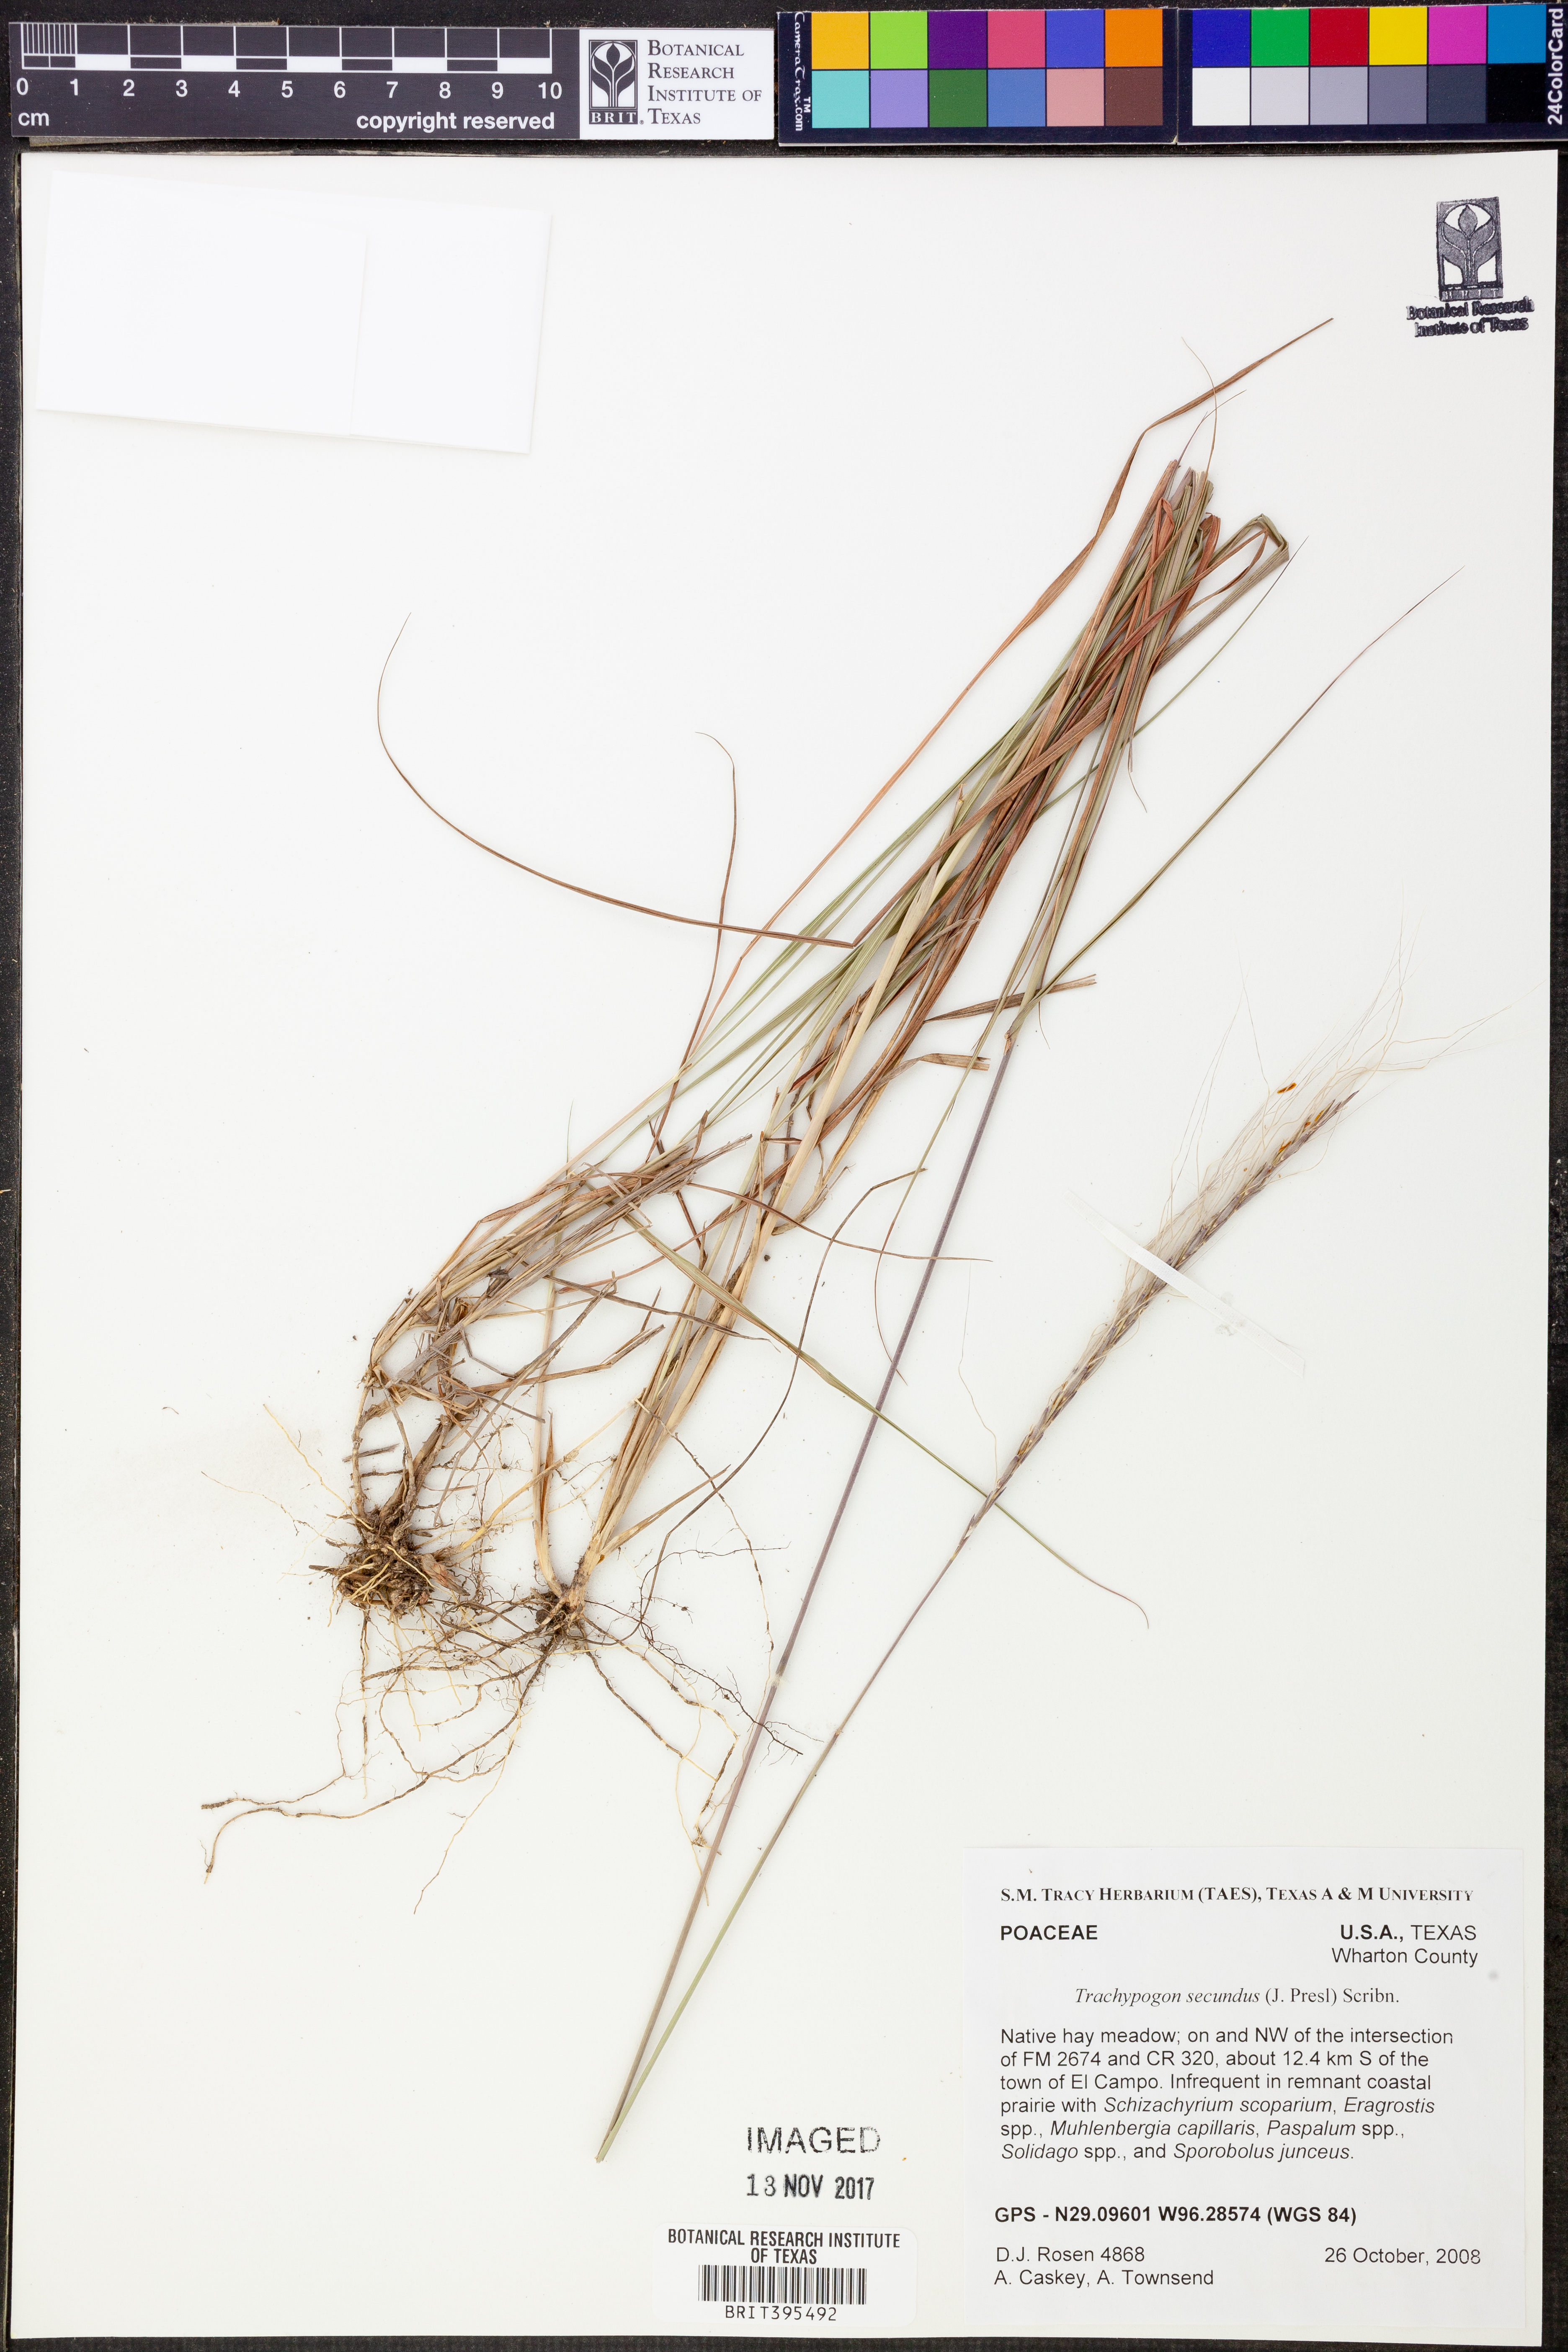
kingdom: Plantae
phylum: Tracheophyta
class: Liliopsida
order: Poales
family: Poaceae
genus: Trachypogon
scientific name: Trachypogon spicatus
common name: Crinkle-awn
